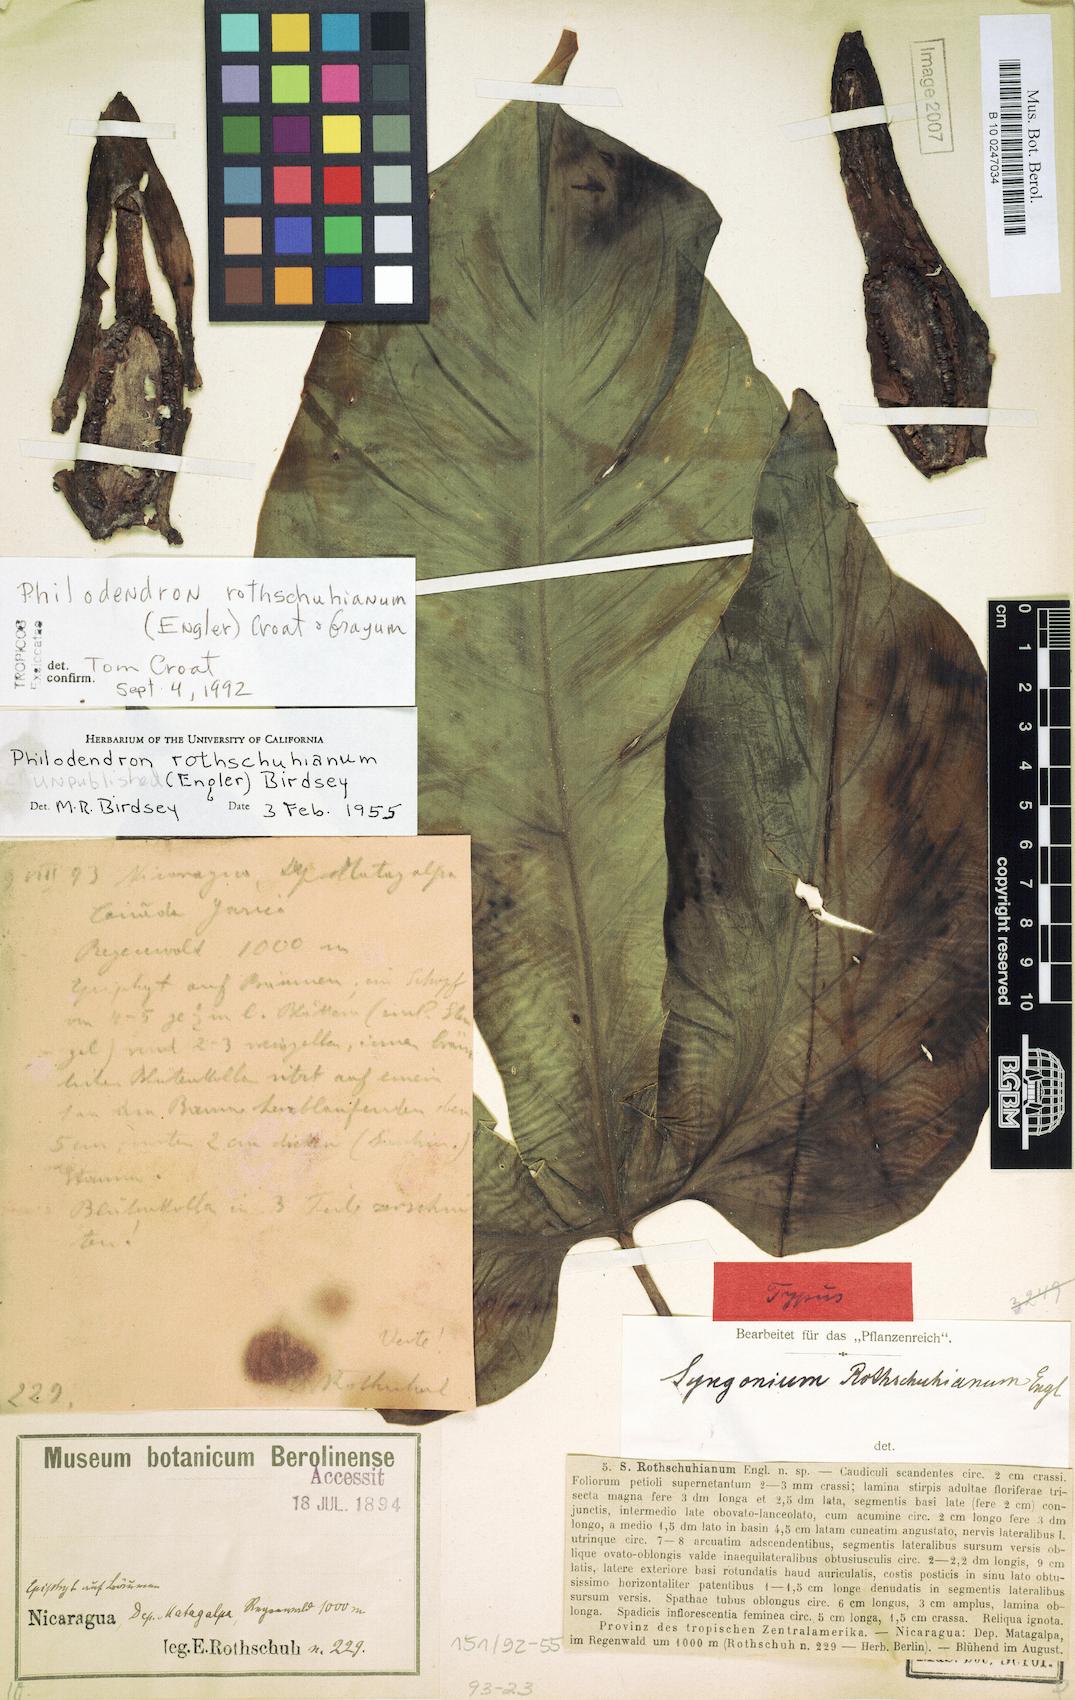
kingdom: Plantae
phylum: Tracheophyta
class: Liliopsida
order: Alismatales
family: Araceae
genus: Philodendron
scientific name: Philodendron rothschuhianum
